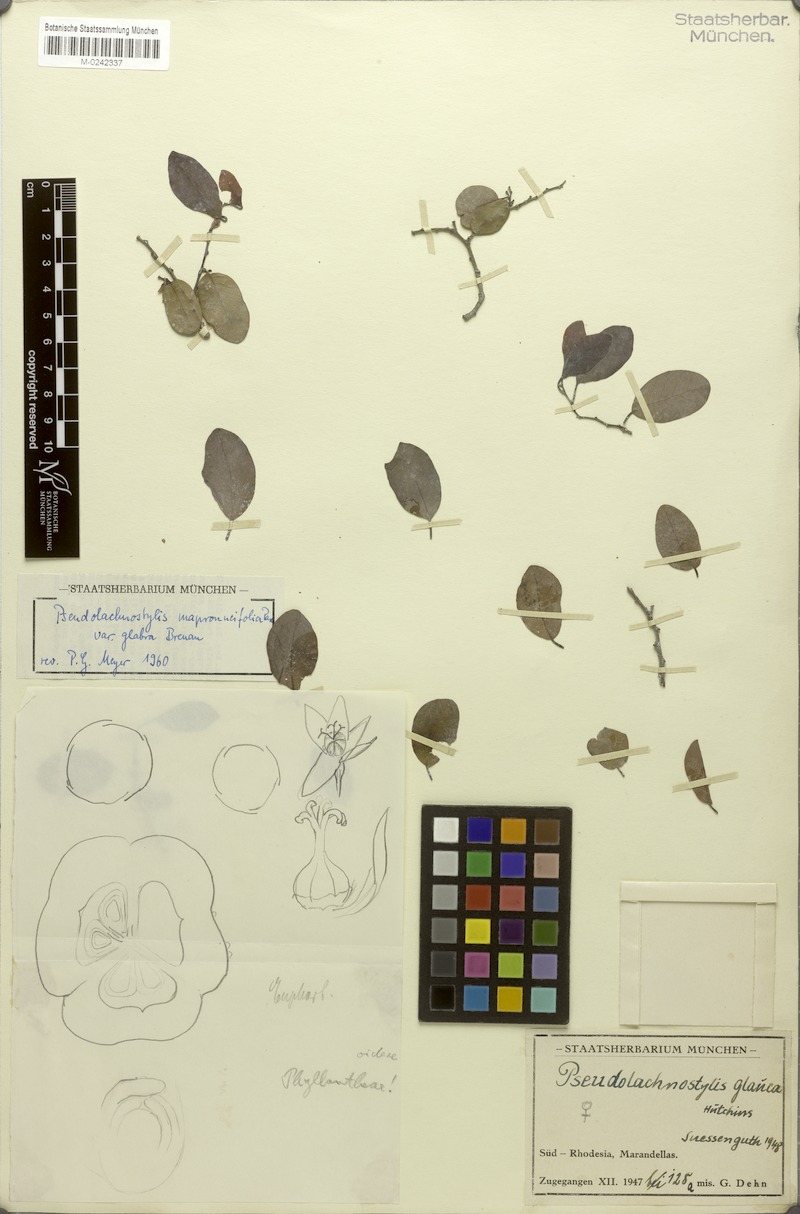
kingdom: Plantae
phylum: Tracheophyta
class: Magnoliopsida
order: Malpighiales
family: Phyllanthaceae
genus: Pseudolachnostylis
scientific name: Pseudolachnostylis maprouneifolia
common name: Kudu berry
